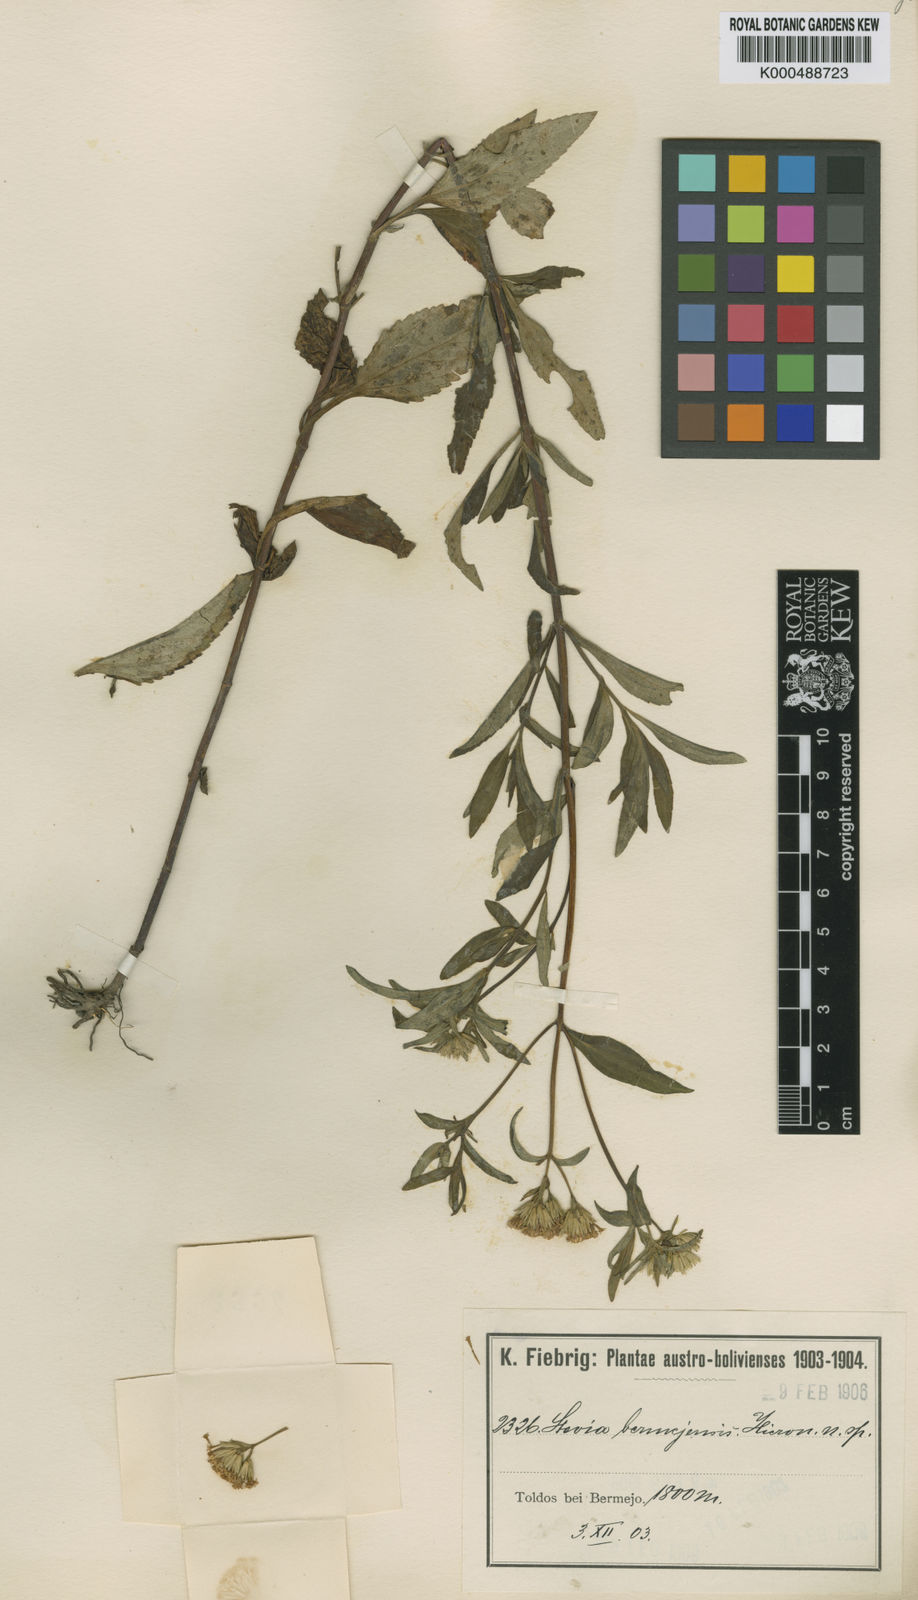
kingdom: Plantae
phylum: Tracheophyta
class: Magnoliopsida
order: Asterales
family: Asteraceae
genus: Stevia
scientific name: Stevia bermejensis
